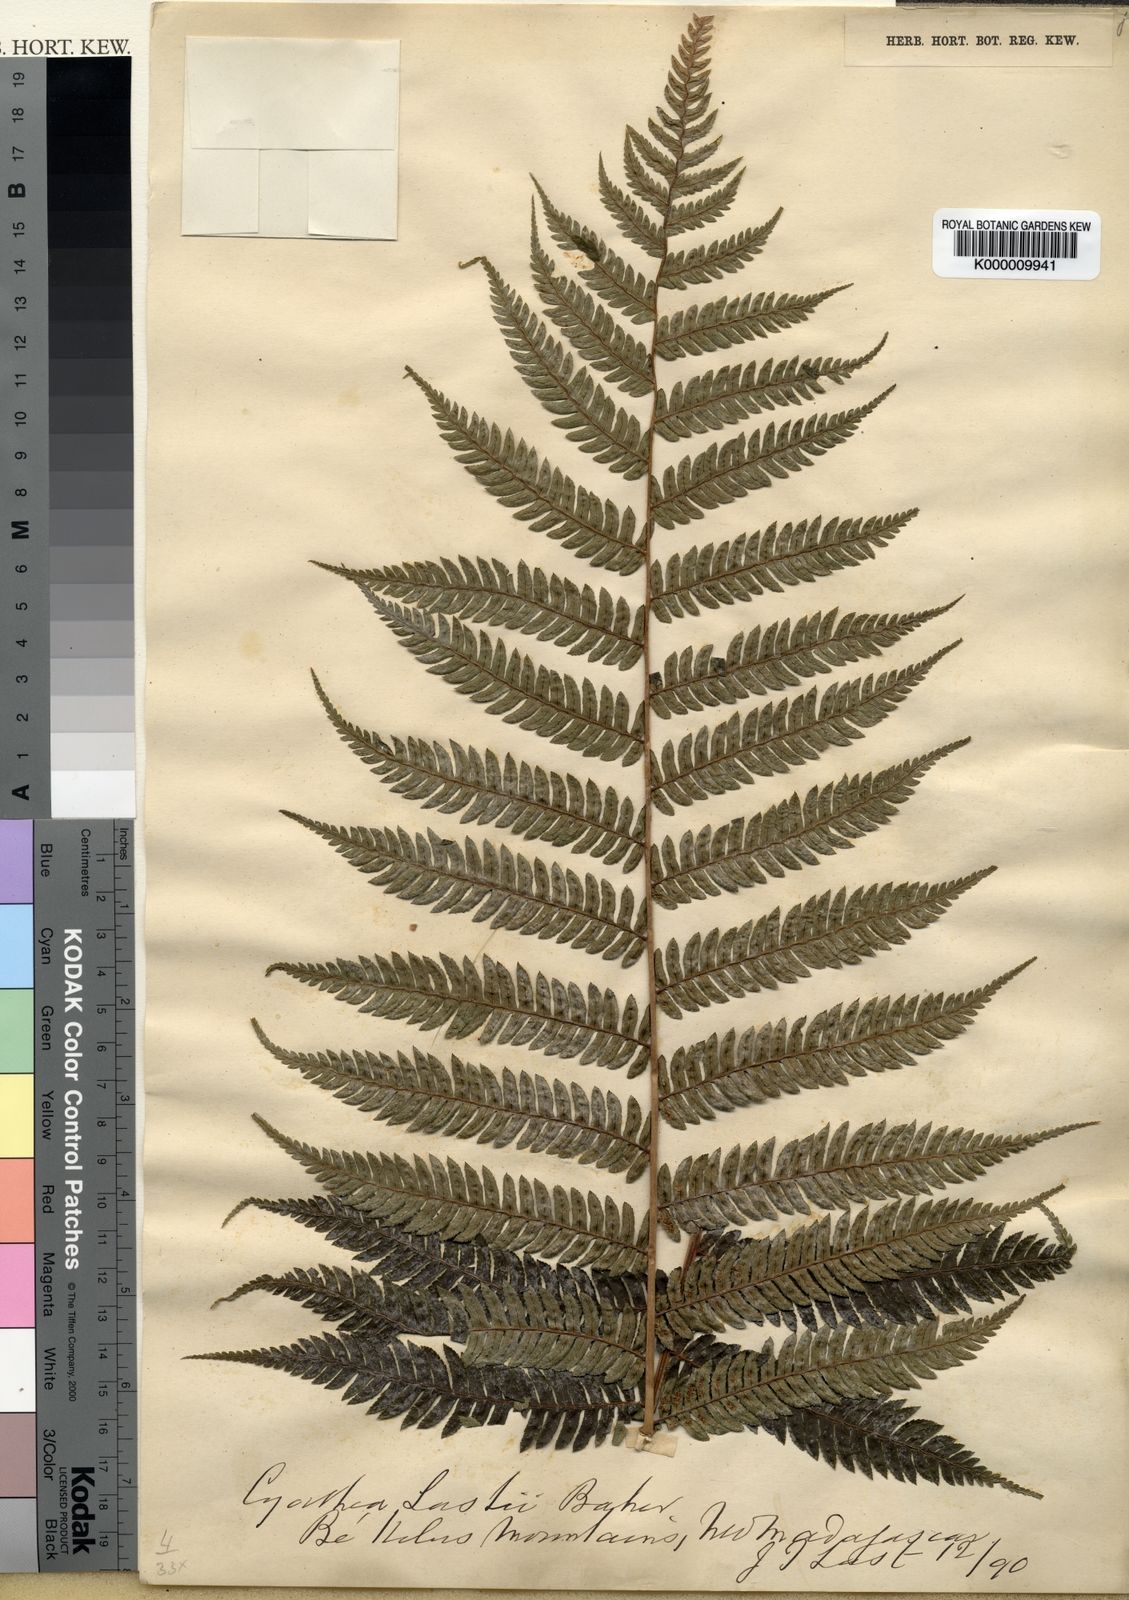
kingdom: Plantae
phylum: Tracheophyta
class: Polypodiopsida
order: Cyatheales
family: Cyatheaceae
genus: Alsophila
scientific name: Alsophila lastii
